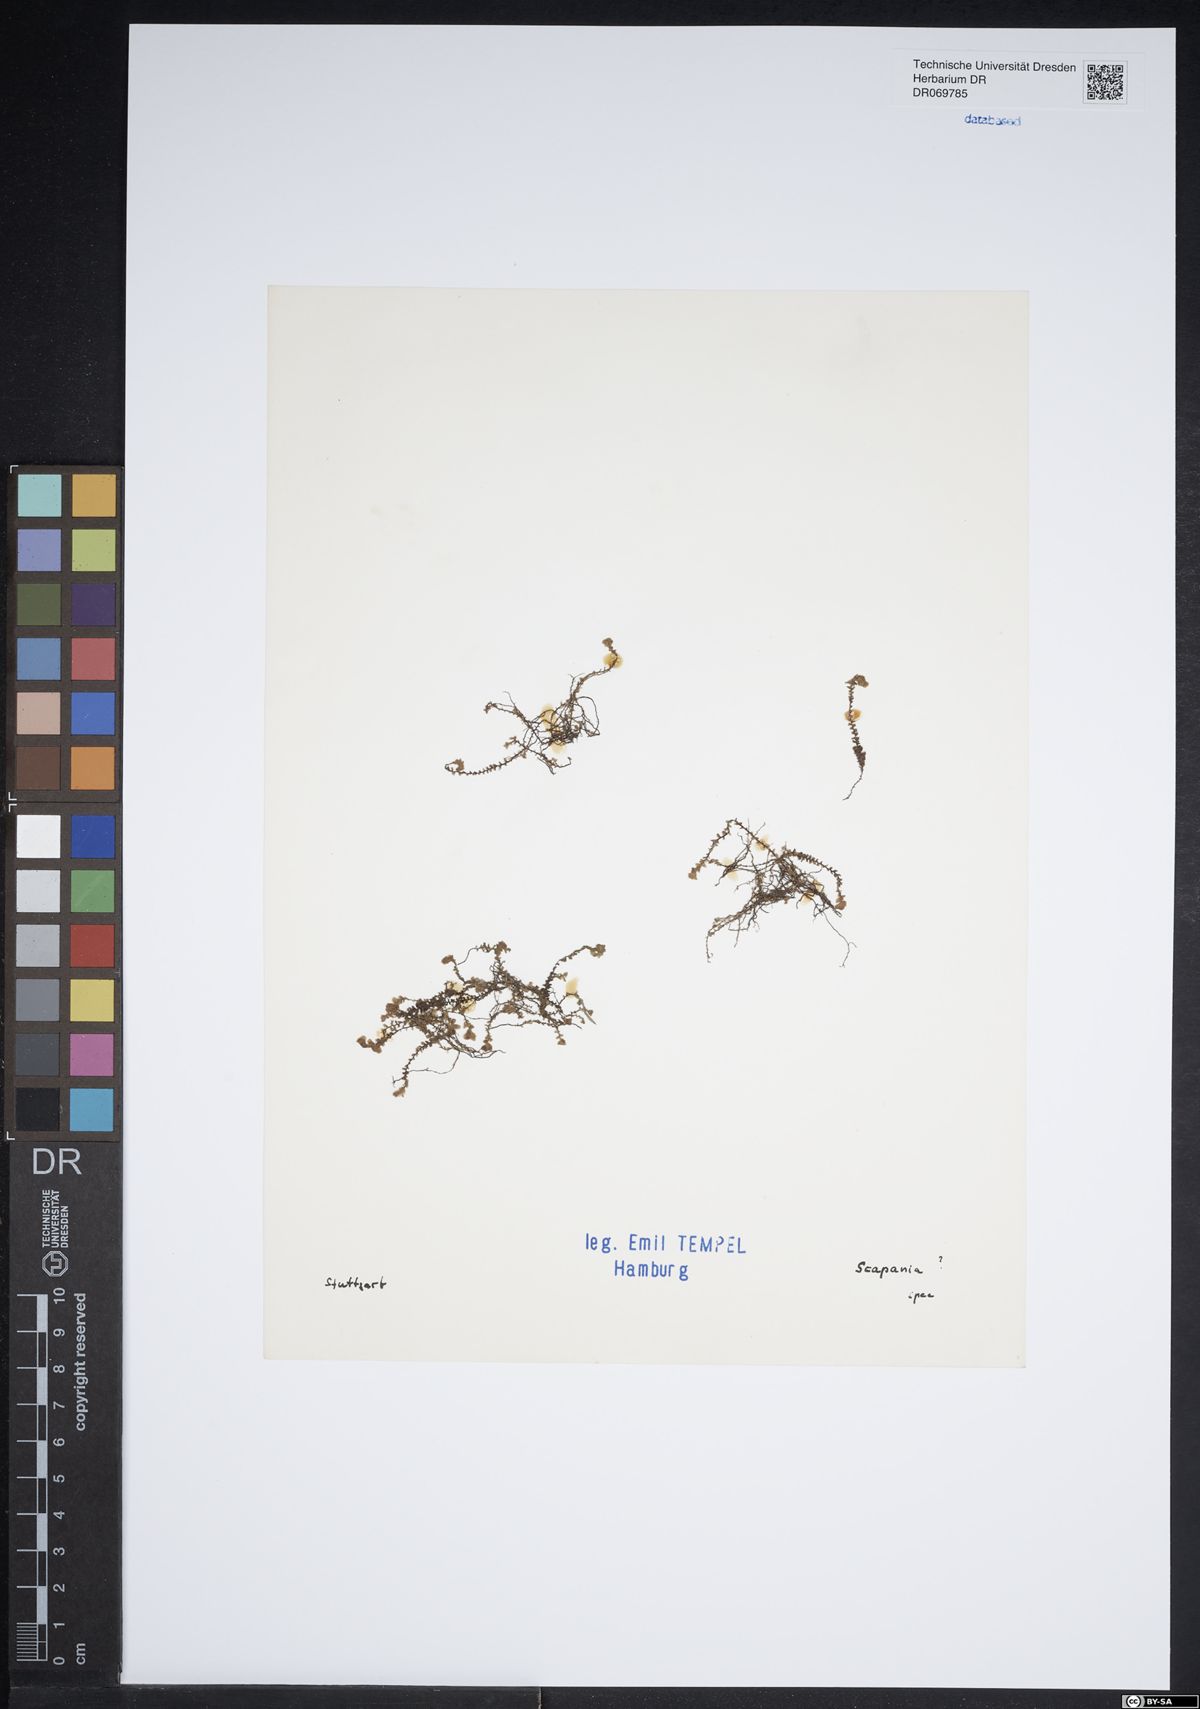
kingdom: Plantae
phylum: Marchantiophyta
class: Jungermanniopsida
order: Jungermanniales
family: Scapaniaceae
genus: Scapania
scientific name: Scapania
